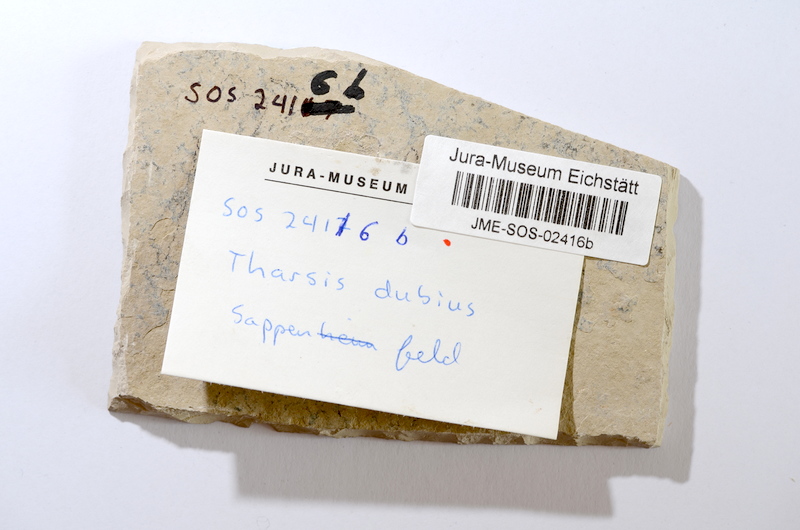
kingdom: Animalia
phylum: Chordata
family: Ascalaboidae
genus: Tharsis
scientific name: Tharsis dubius
